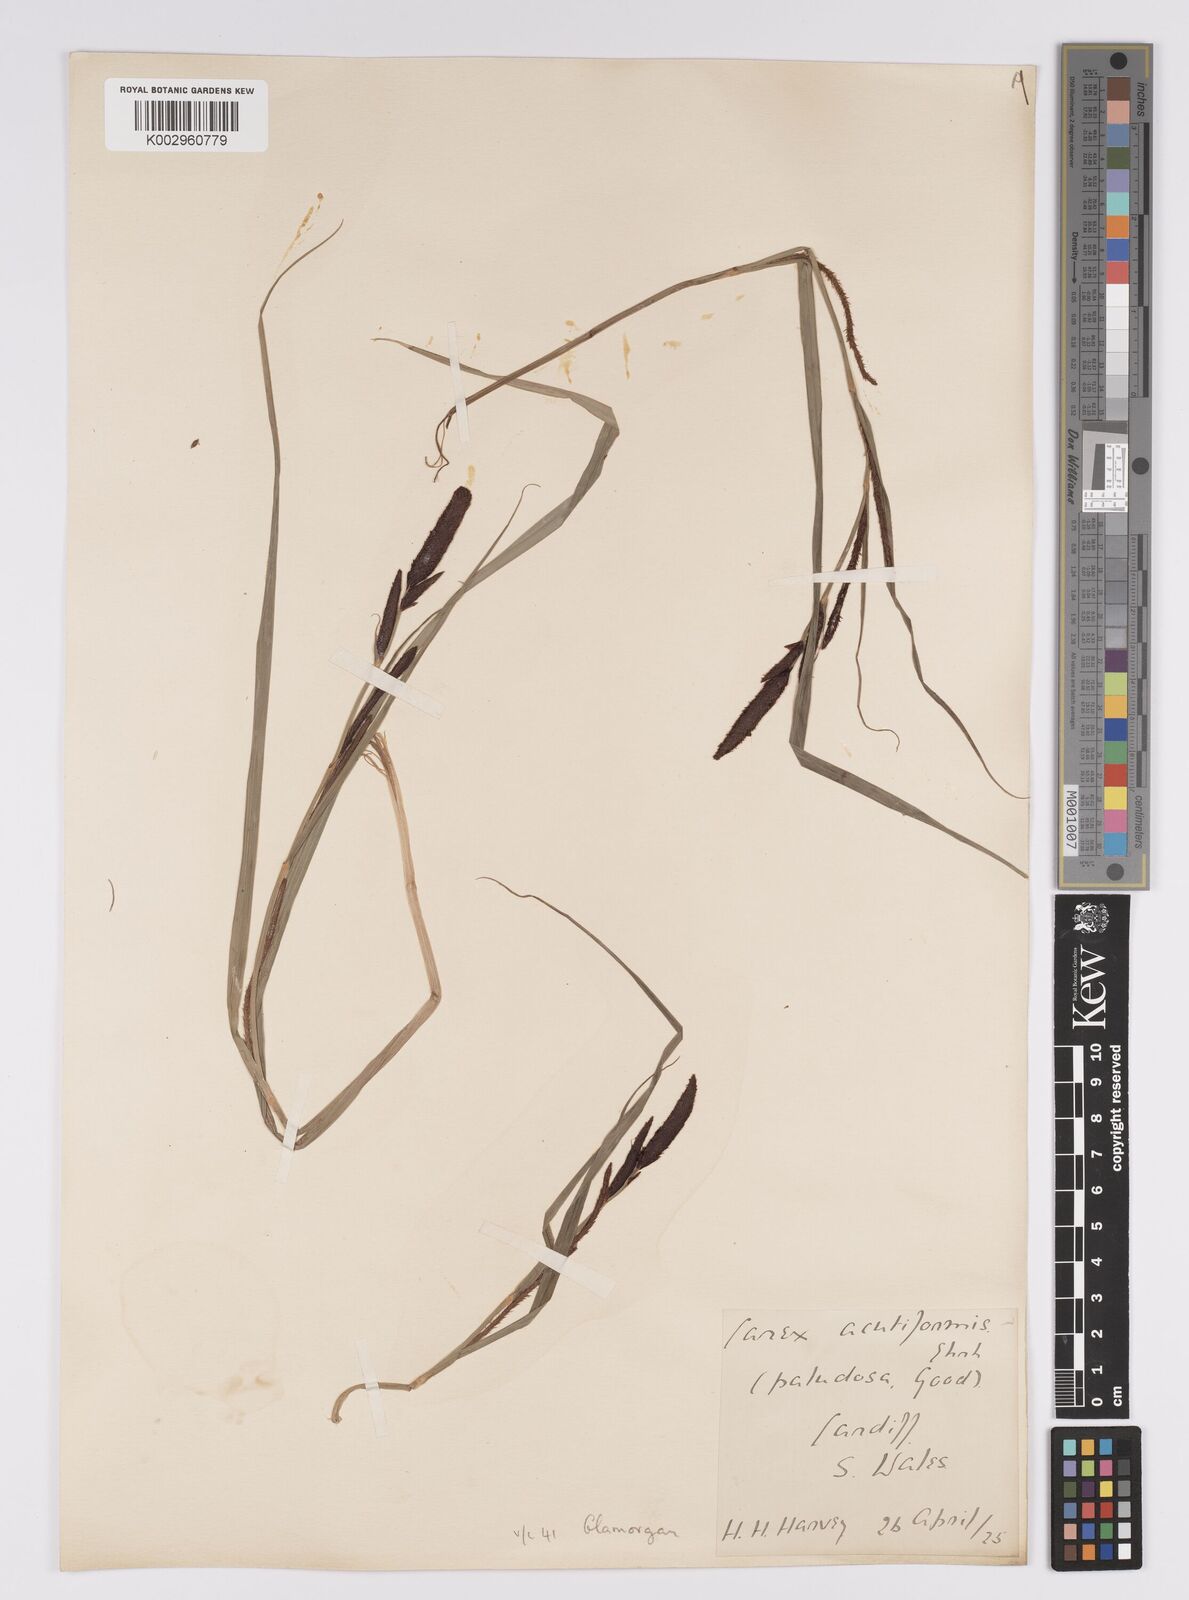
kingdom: Plantae
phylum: Tracheophyta
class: Liliopsida
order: Poales
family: Cyperaceae
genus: Carex
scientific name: Carex acutiformis
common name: Lesser pond-sedge
